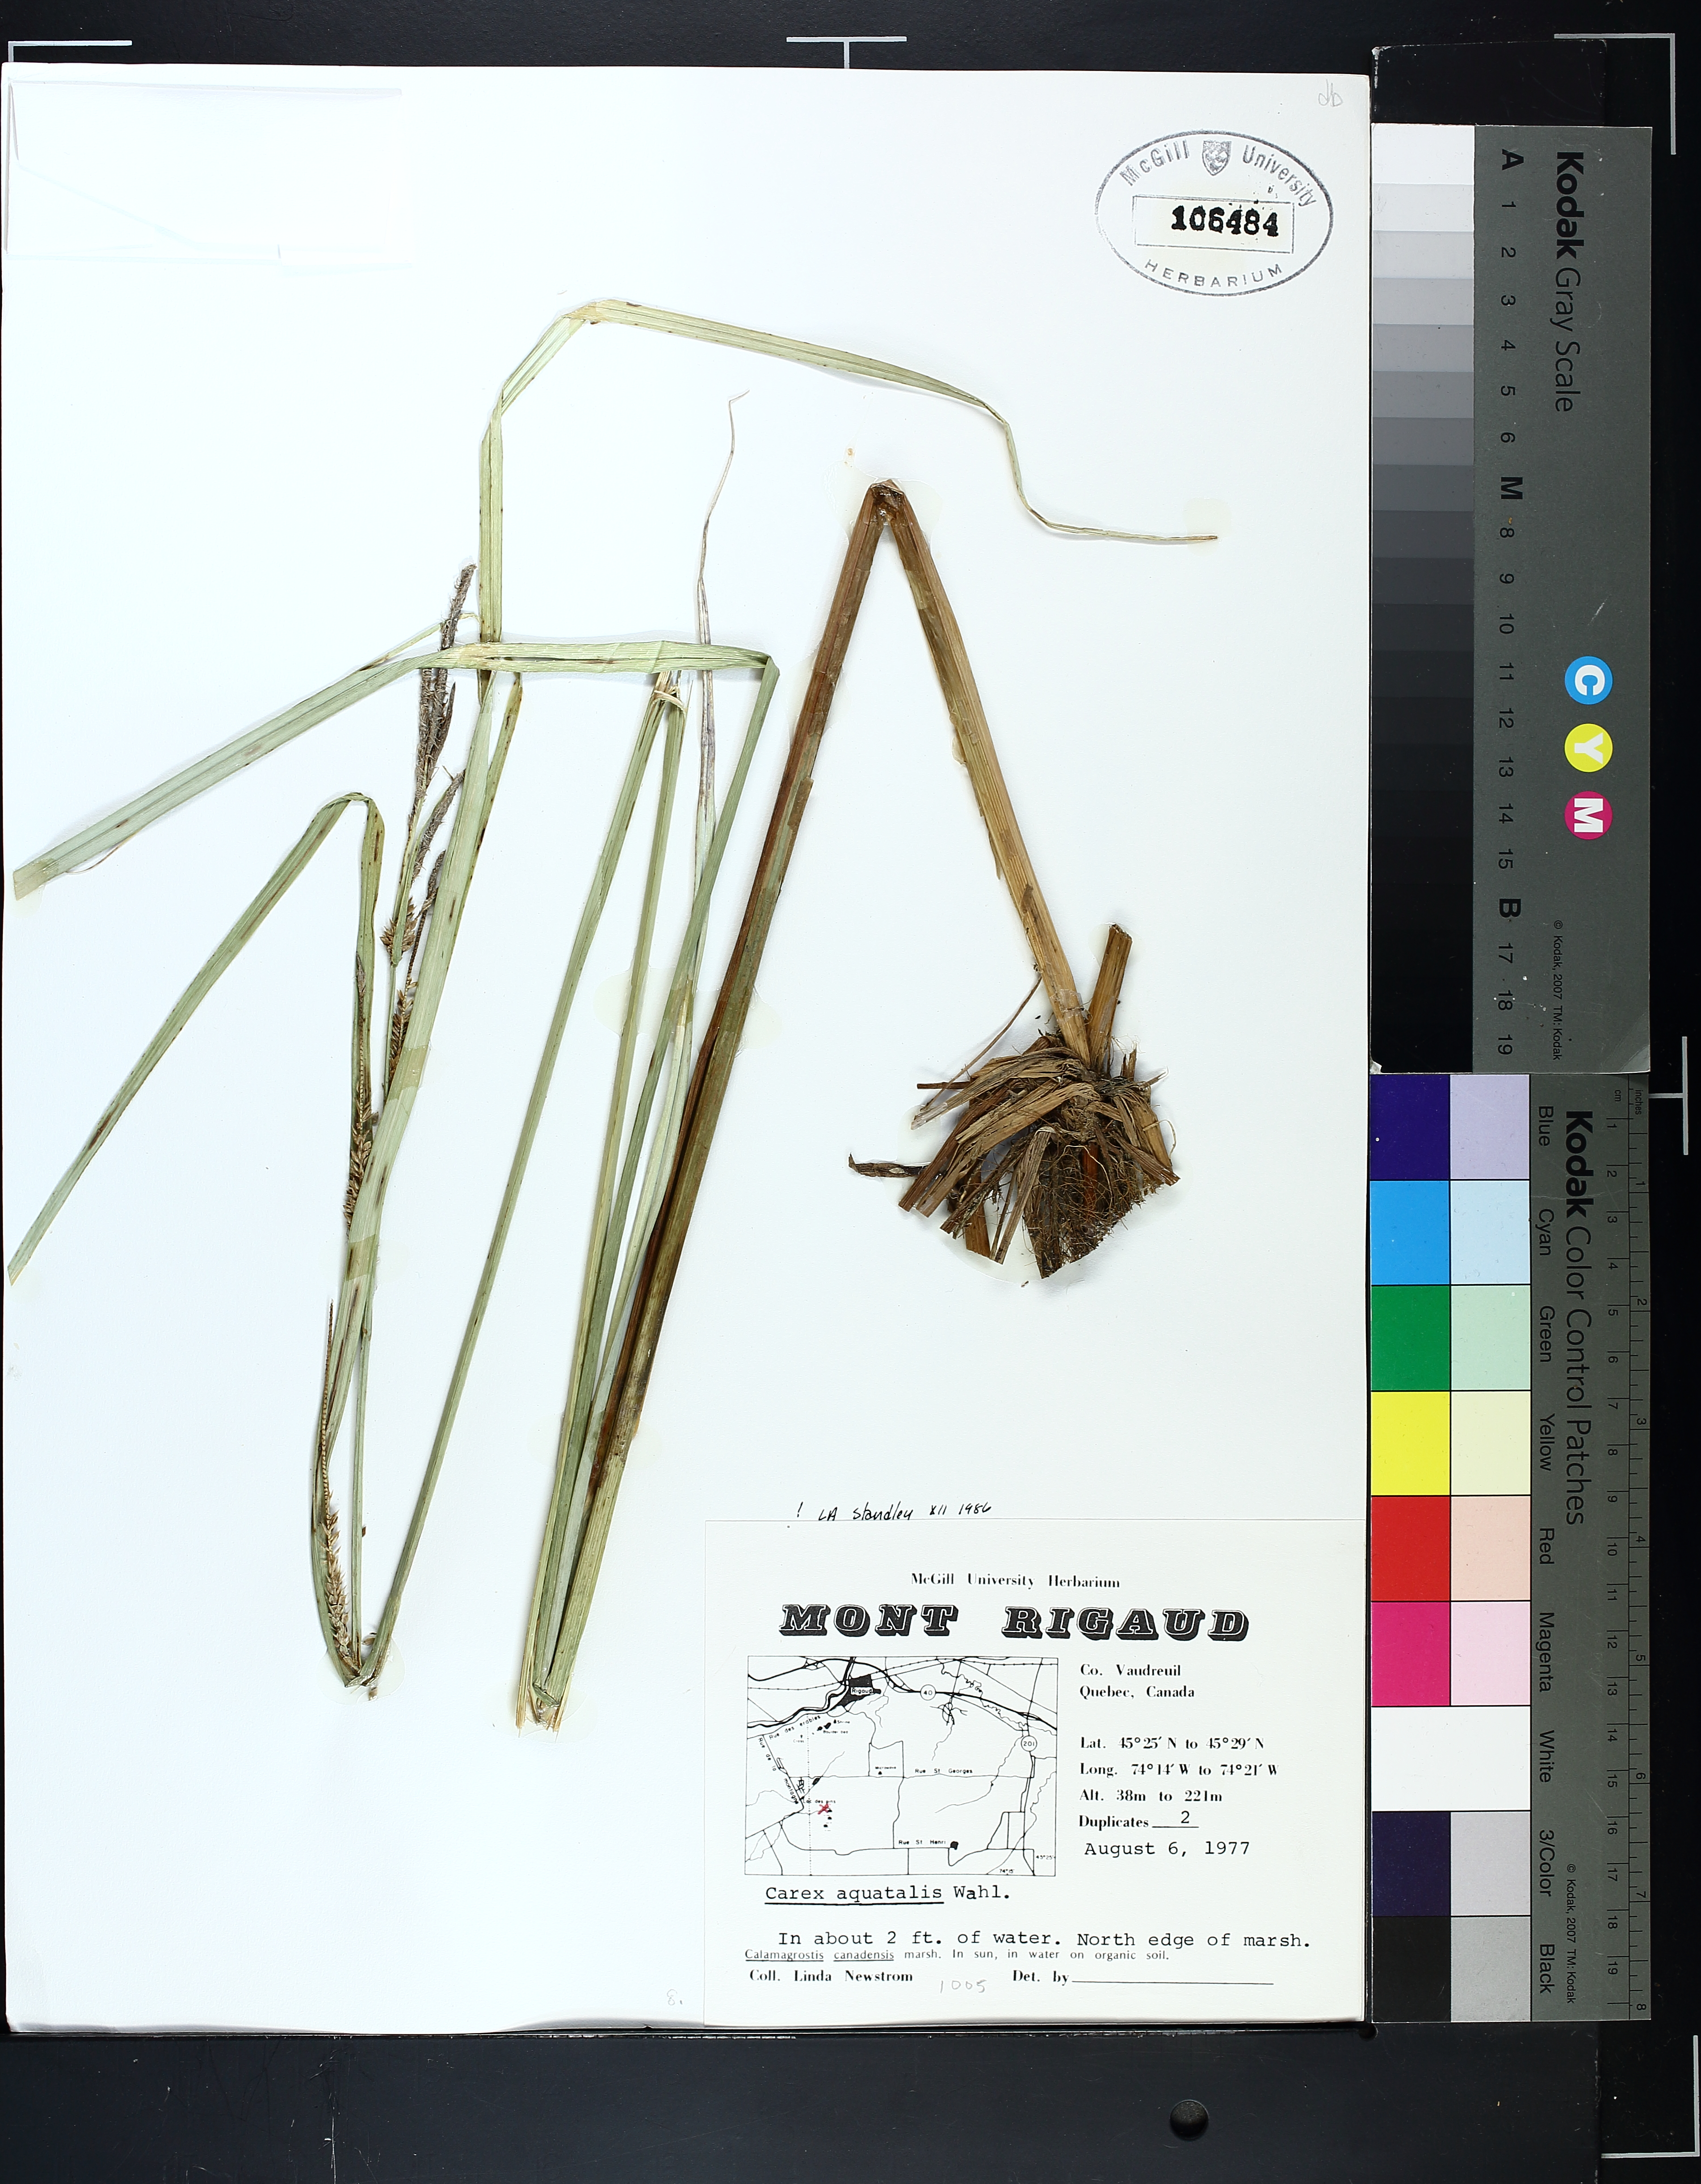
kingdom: Plantae
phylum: Tracheophyta
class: Liliopsida
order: Poales
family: Cyperaceae
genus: Carex
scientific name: Carex aquatilis
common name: Water sedge
